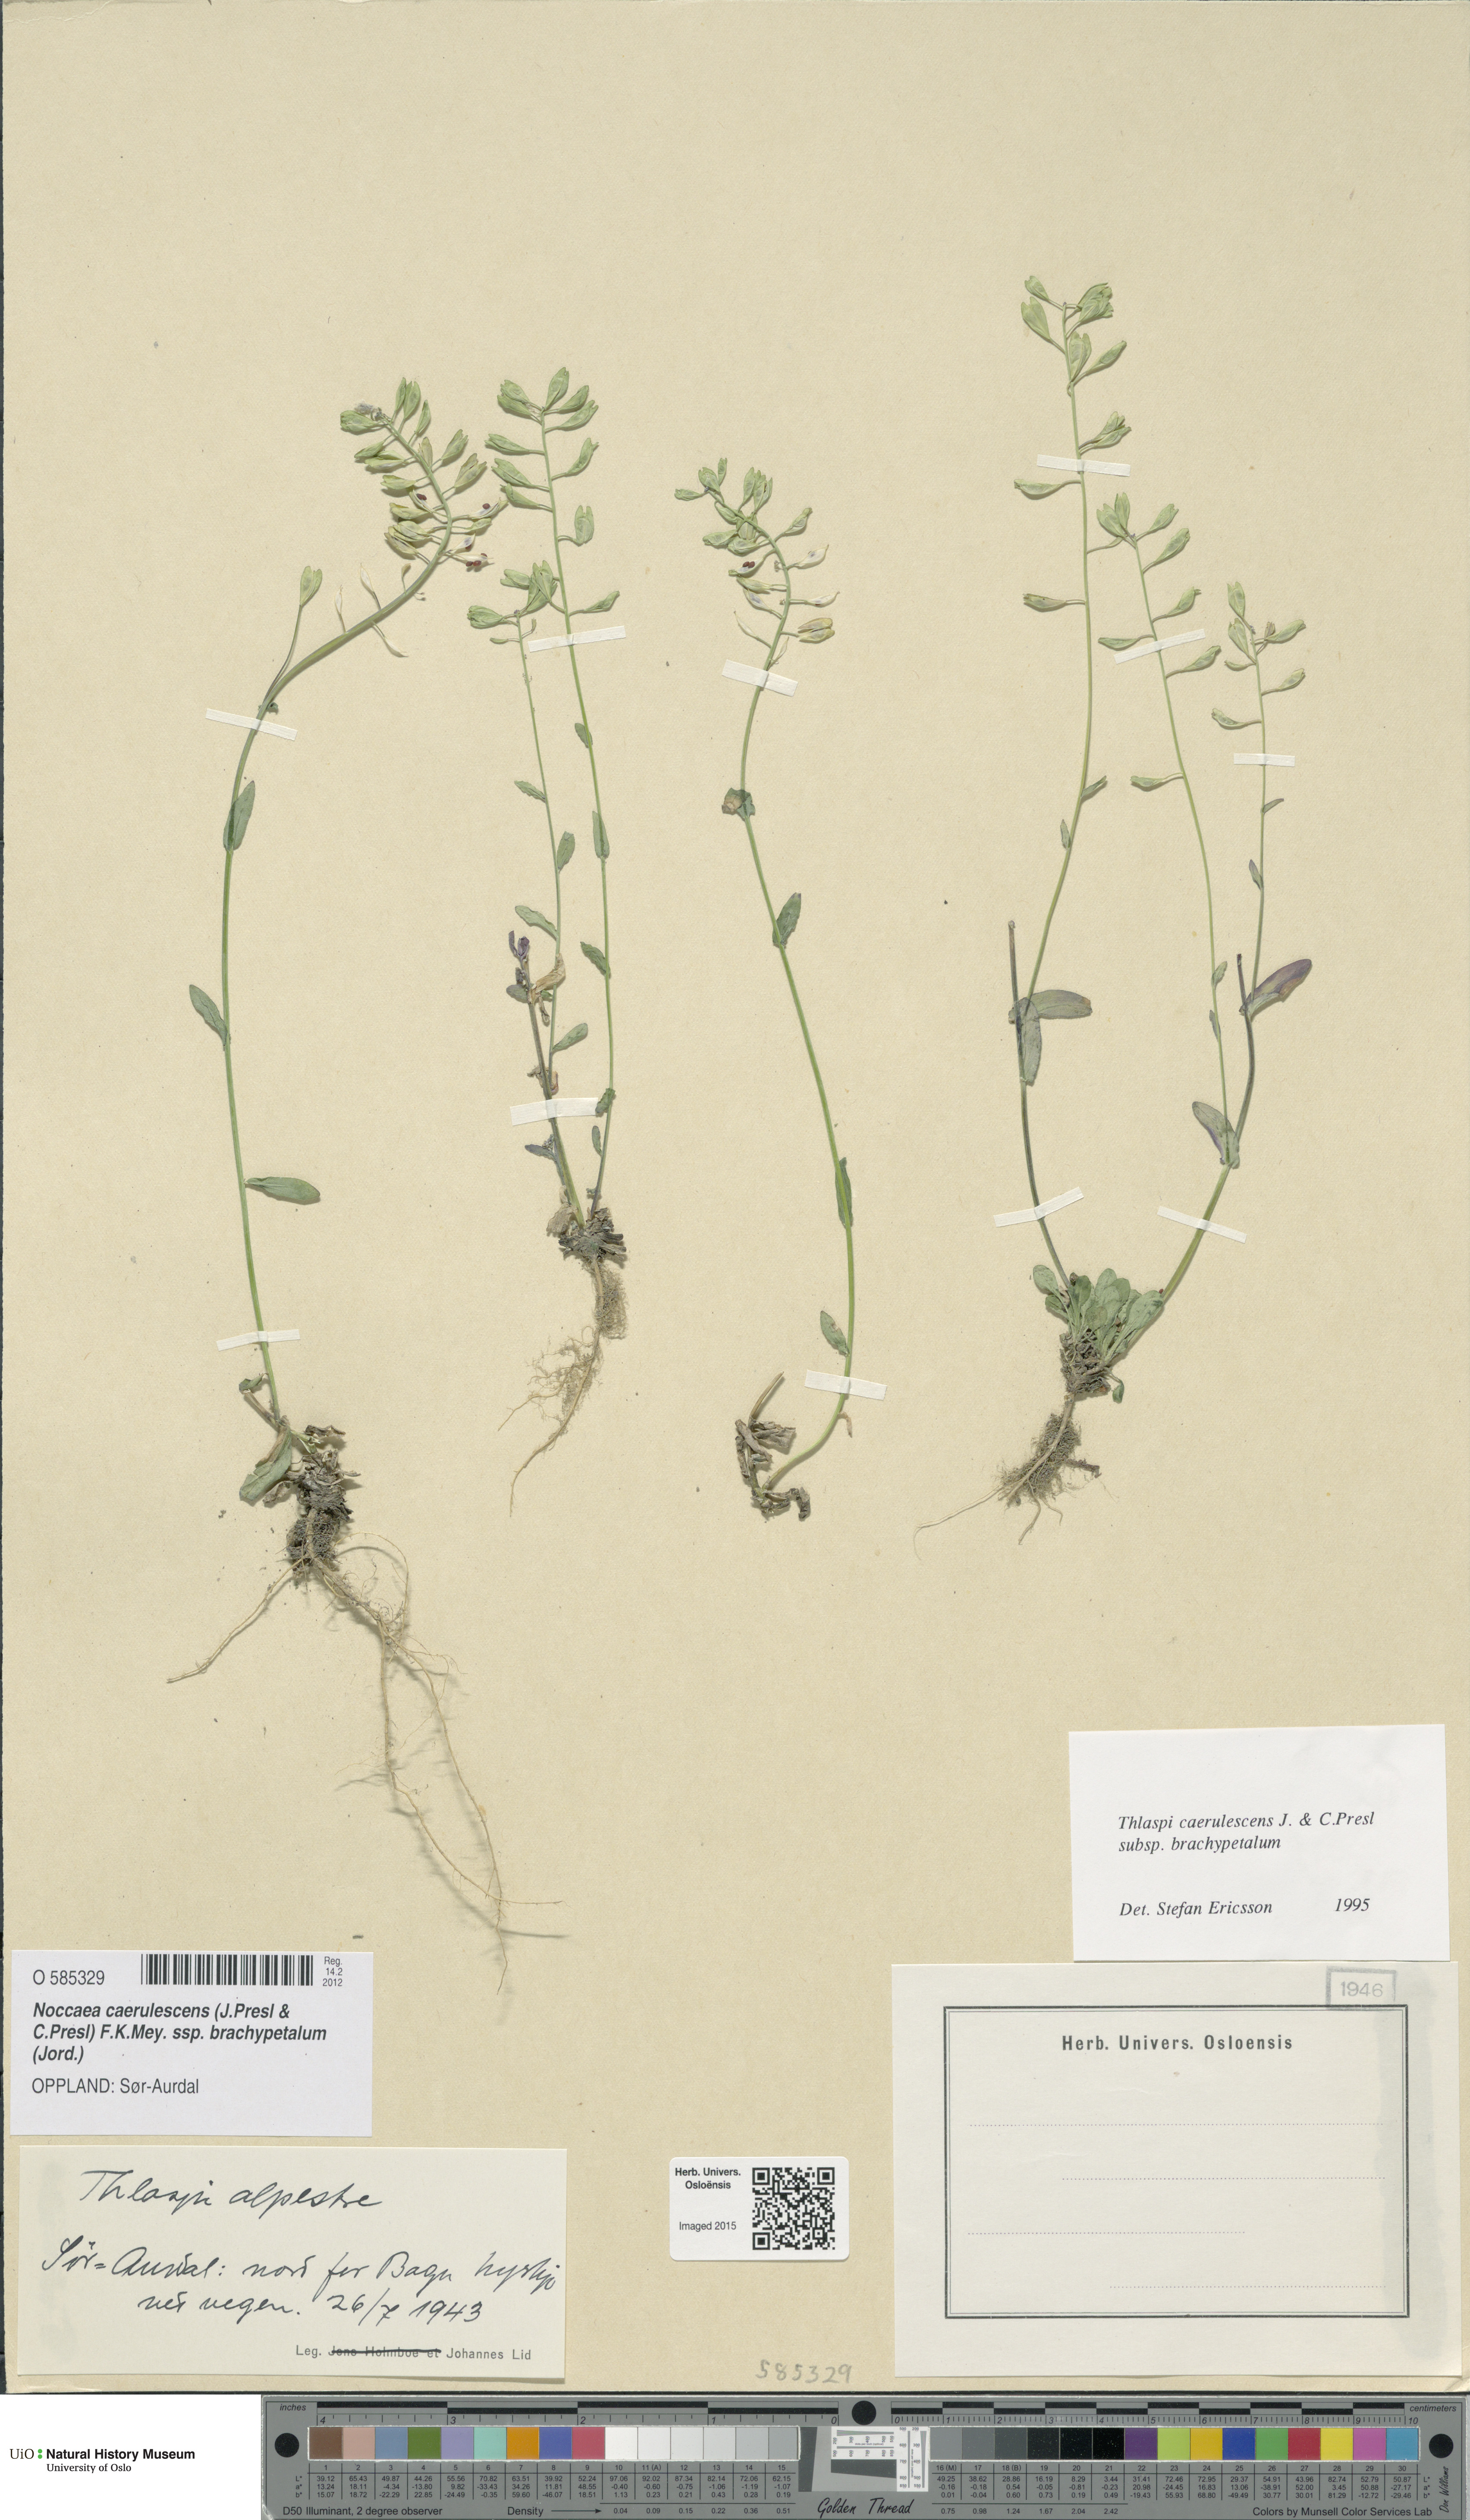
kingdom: Plantae
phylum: Tracheophyta
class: Magnoliopsida
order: Brassicales
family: Brassicaceae
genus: Noccaea
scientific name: Noccaea brachypetala
